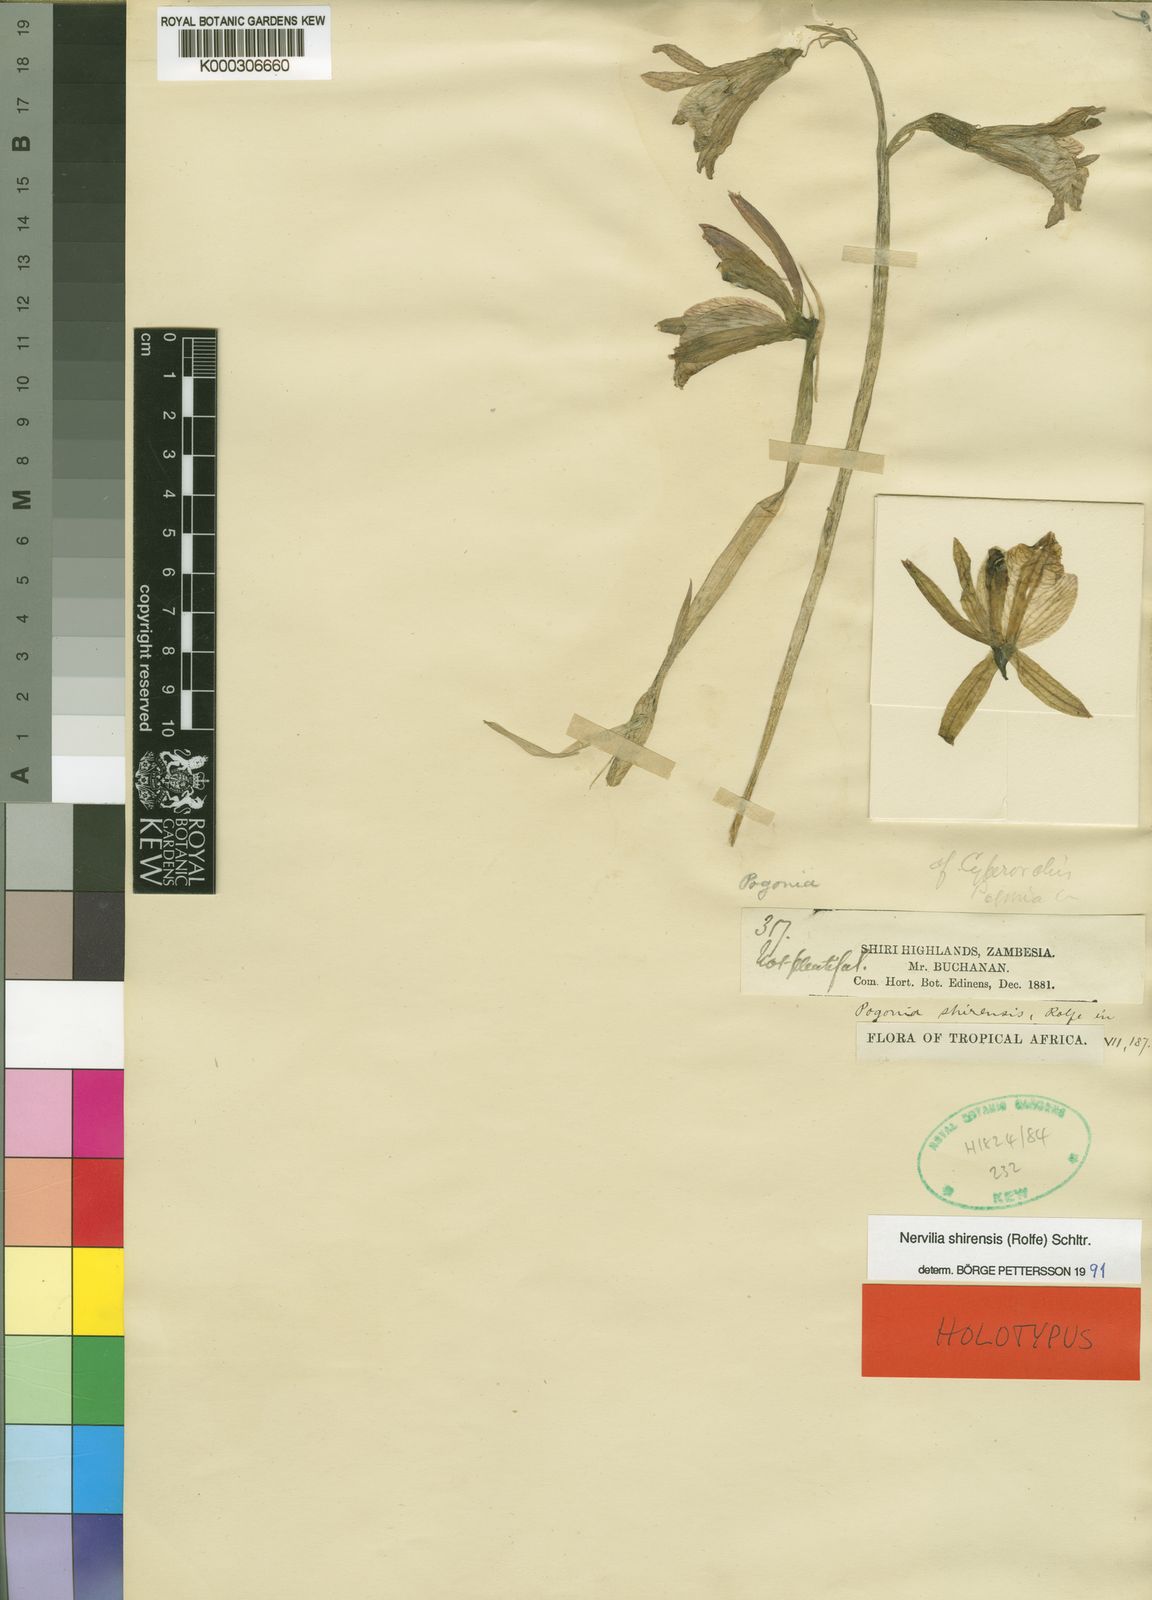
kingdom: Plantae
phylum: Tracheophyta
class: Liliopsida
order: Asparagales
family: Orchidaceae
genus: Nervilia
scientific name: Nervilia shirensis
